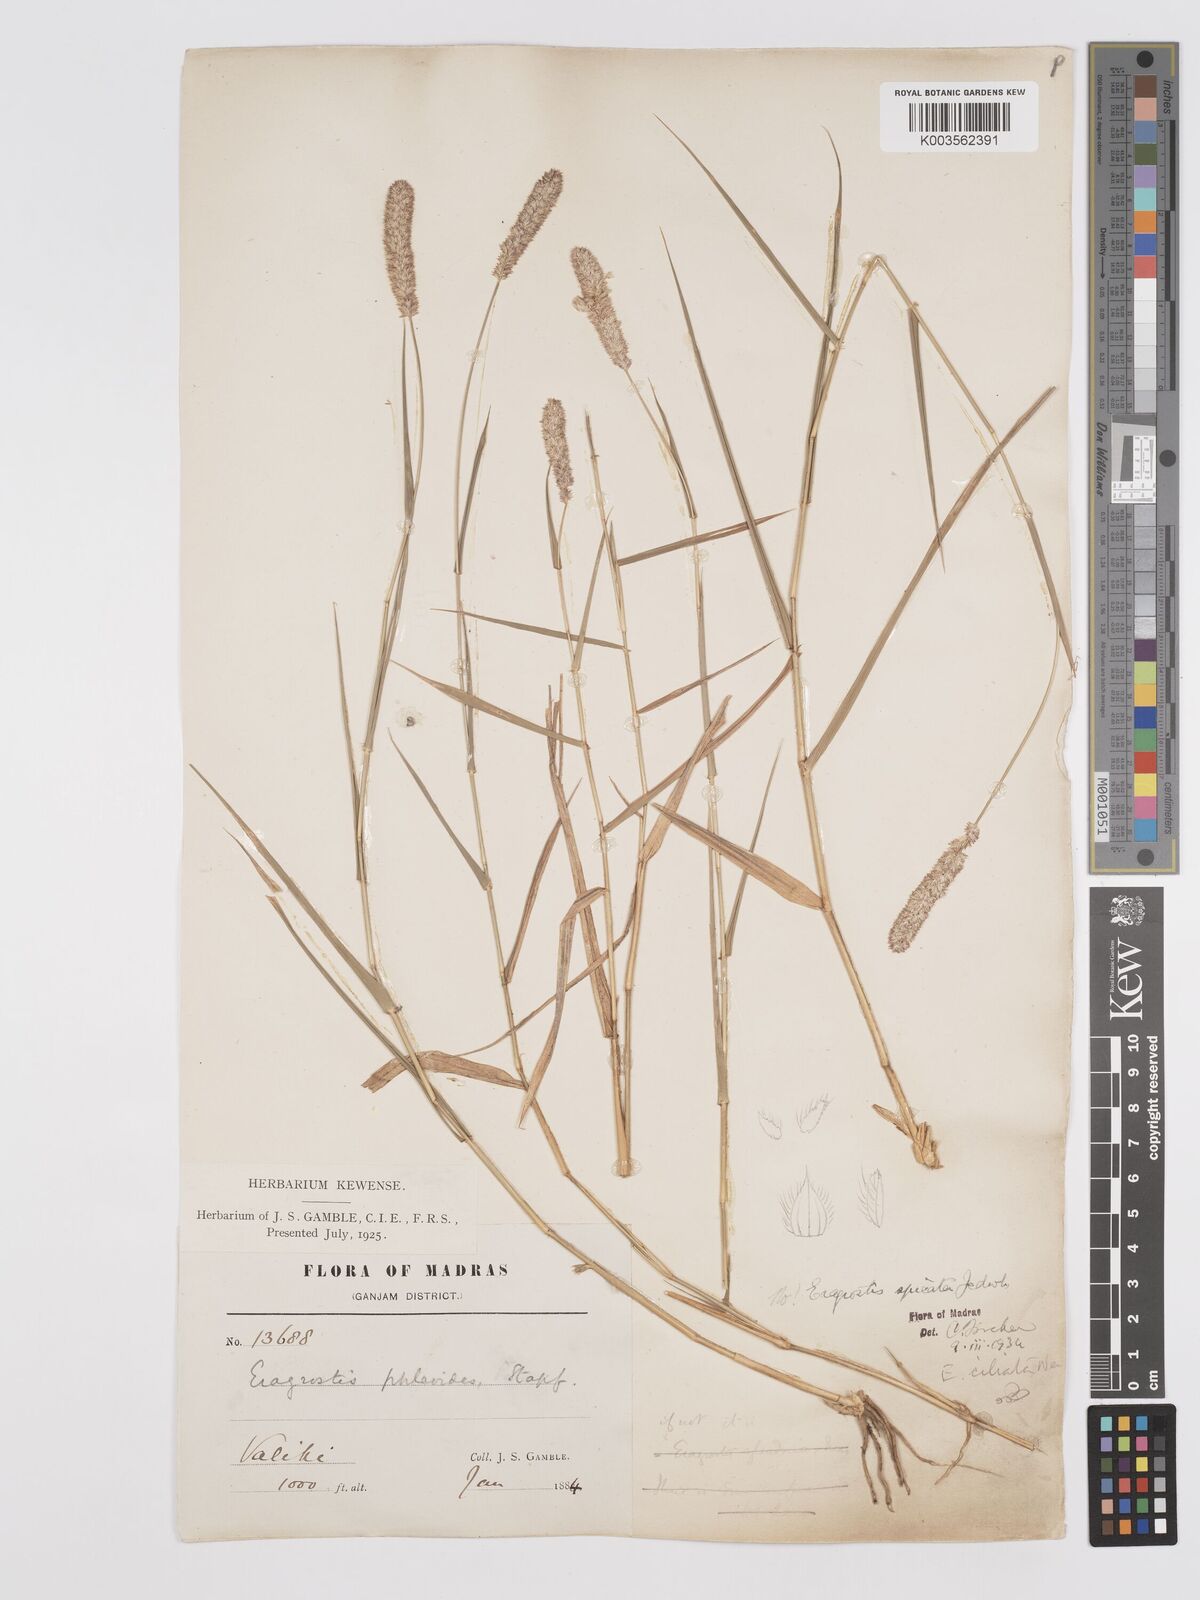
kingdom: Plantae
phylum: Tracheophyta
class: Liliopsida
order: Poales
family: Poaceae
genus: Eragrostis
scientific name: Eragrostis ciliata
